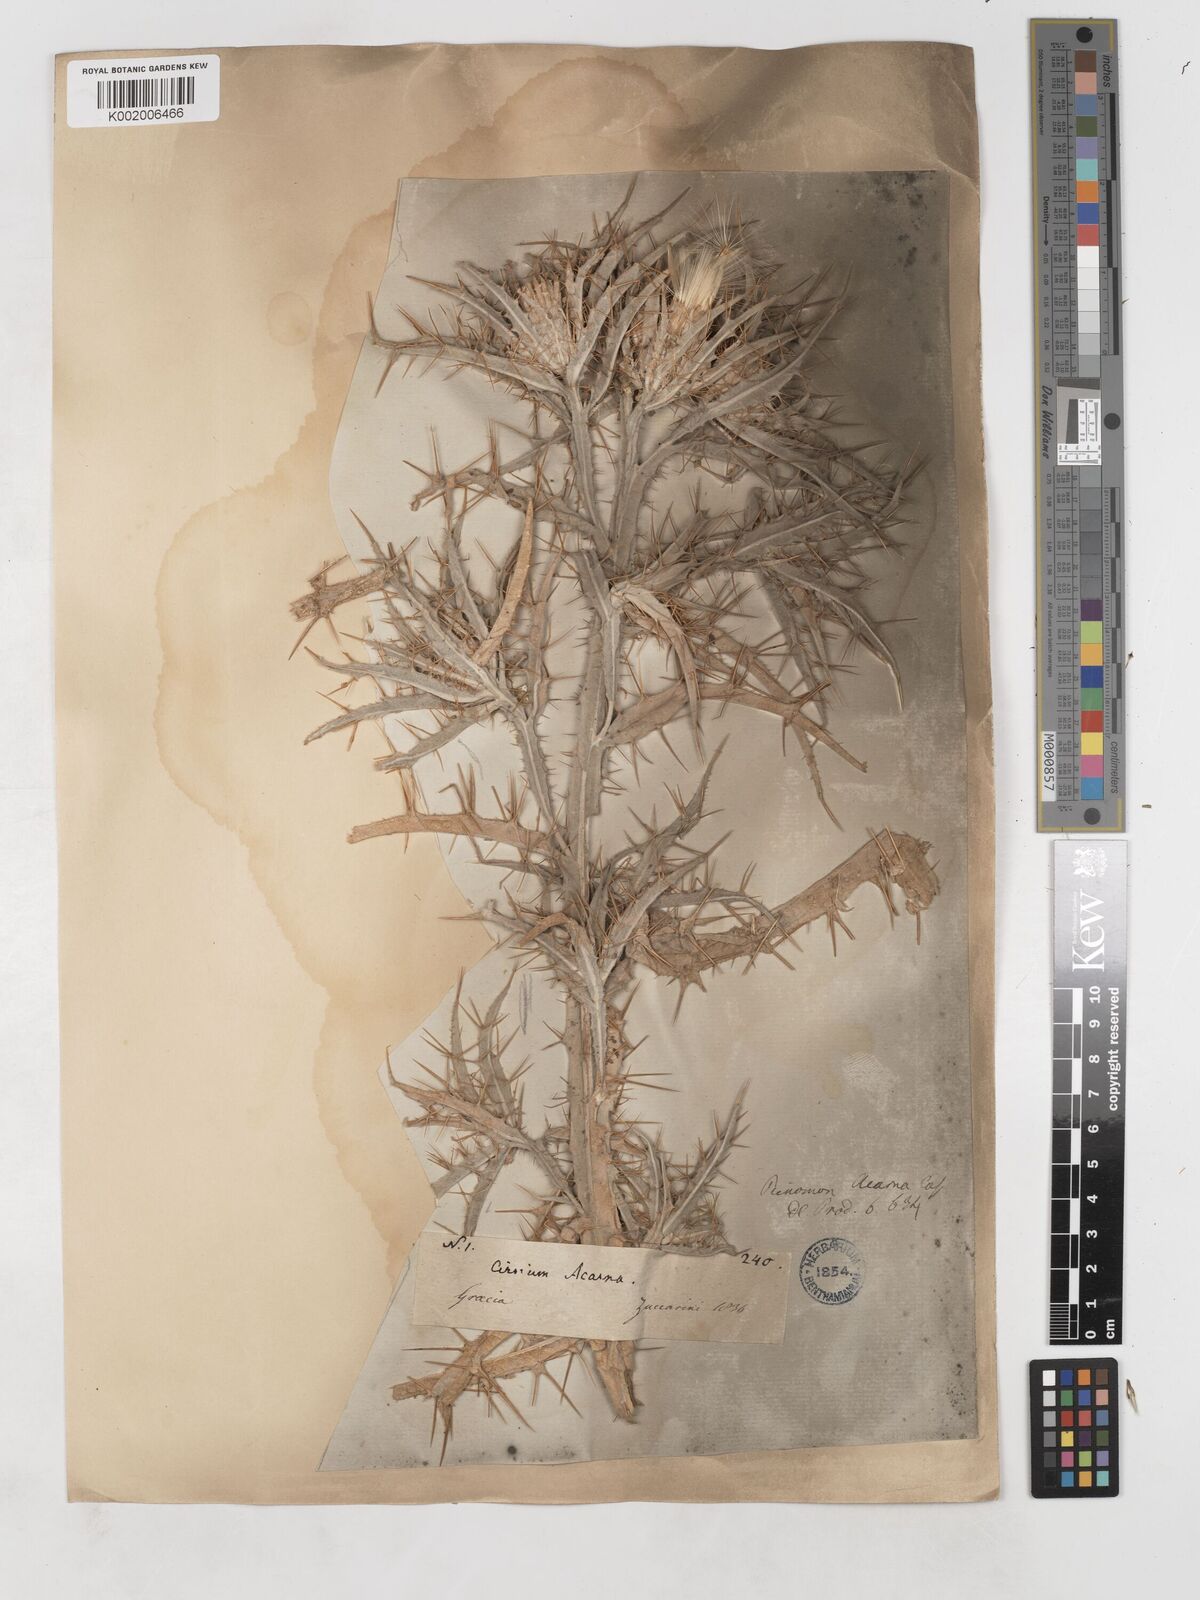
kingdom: Plantae
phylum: Tracheophyta
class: Magnoliopsida
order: Asterales
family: Asteraceae
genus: Picnomon
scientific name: Picnomon acarna
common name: Soldier thistle
